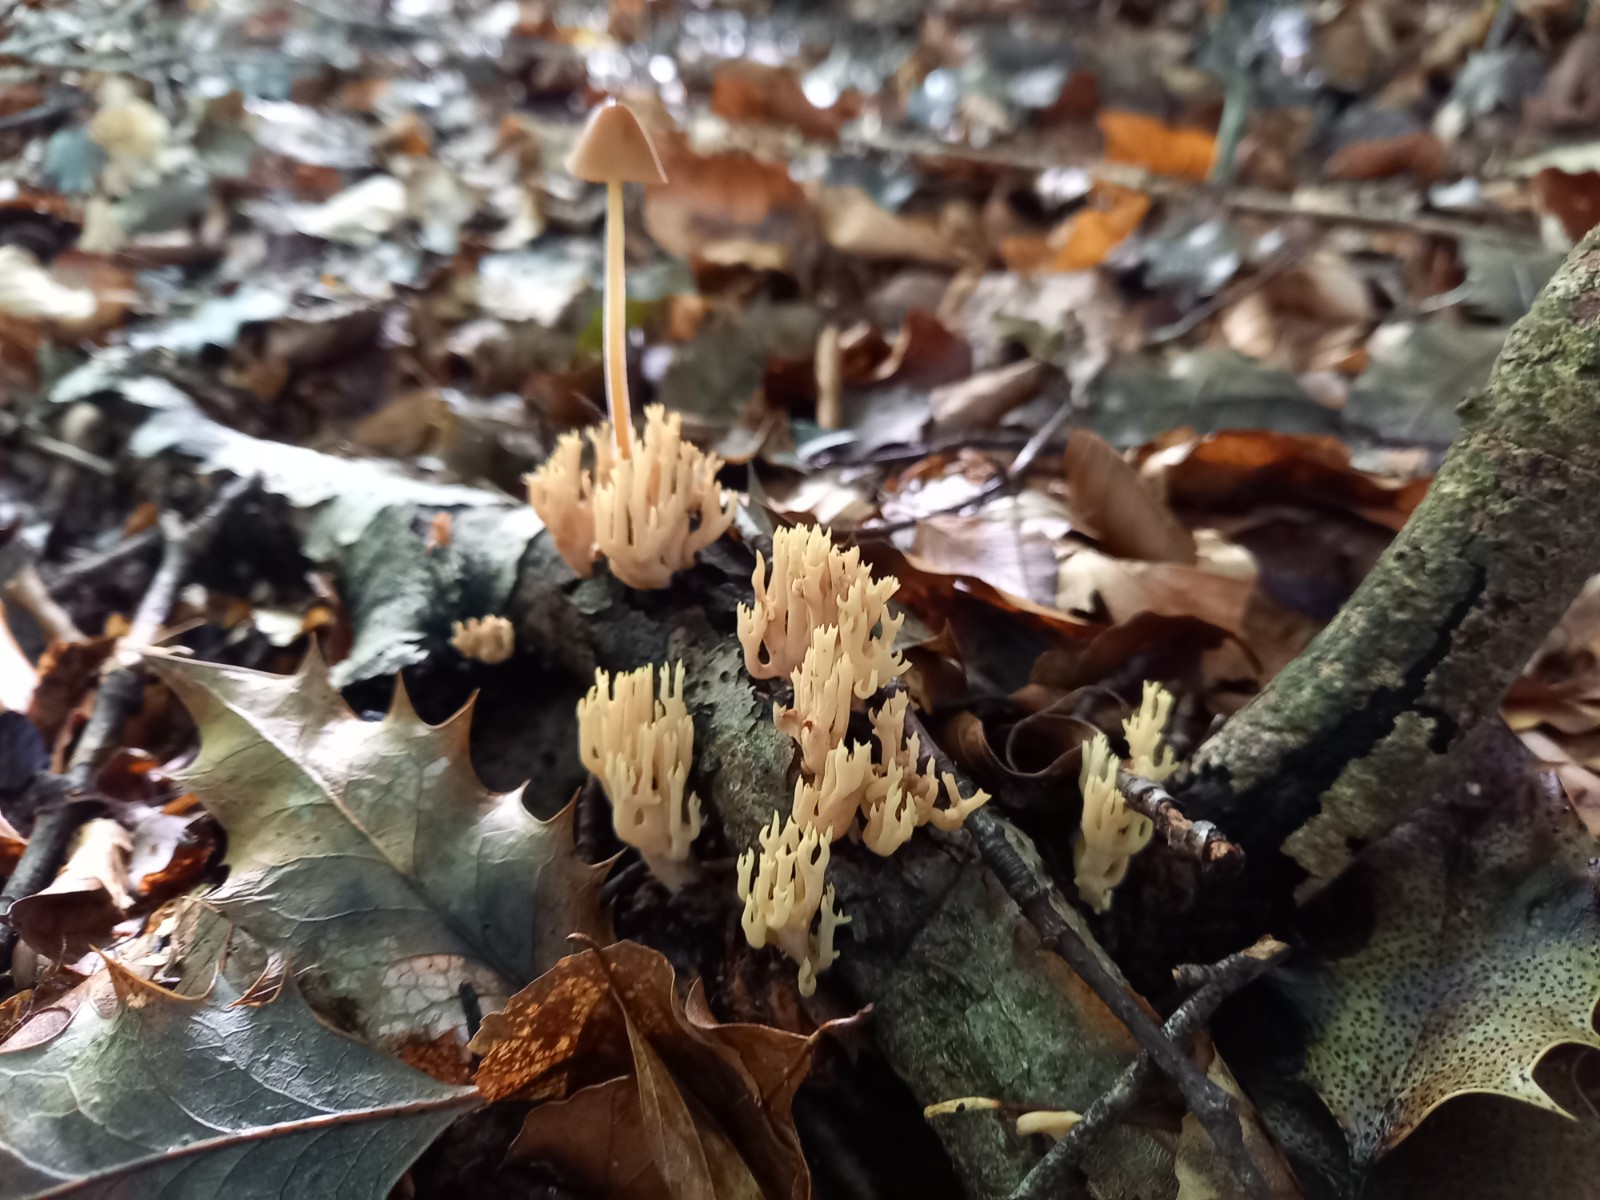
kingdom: Fungi
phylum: Basidiomycota
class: Agaricomycetes
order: Gomphales
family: Gomphaceae
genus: Ramaria
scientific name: Ramaria stricta
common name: rank koralsvamp
